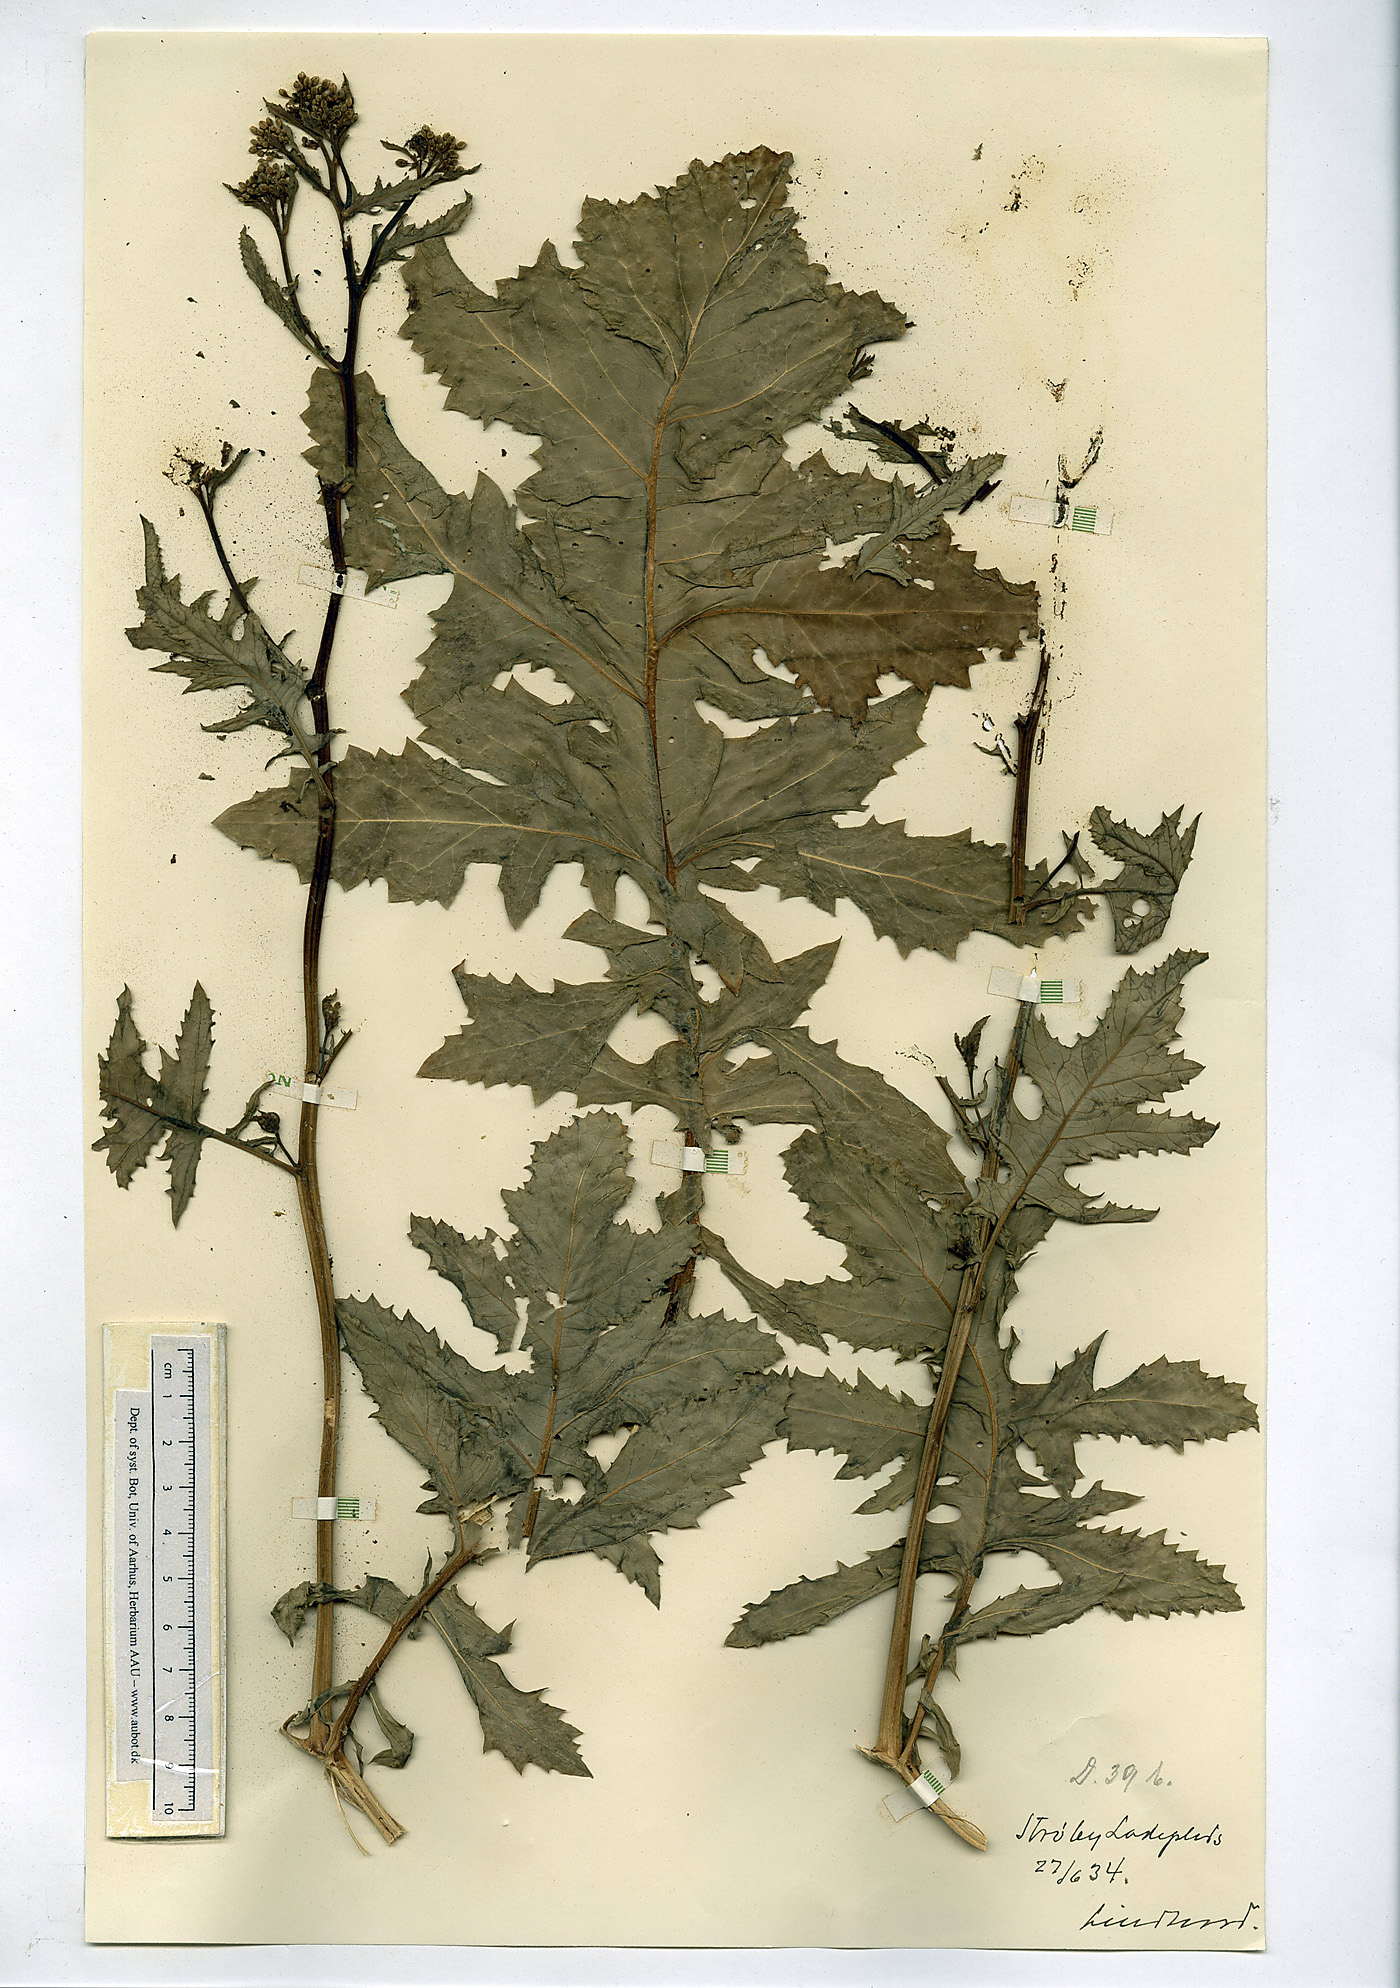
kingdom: Plantae
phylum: Tracheophyta
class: Magnoliopsida
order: Brassicales
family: Brassicaceae
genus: Rapistrum
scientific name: Rapistrum perenne
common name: Steppe cabbage
